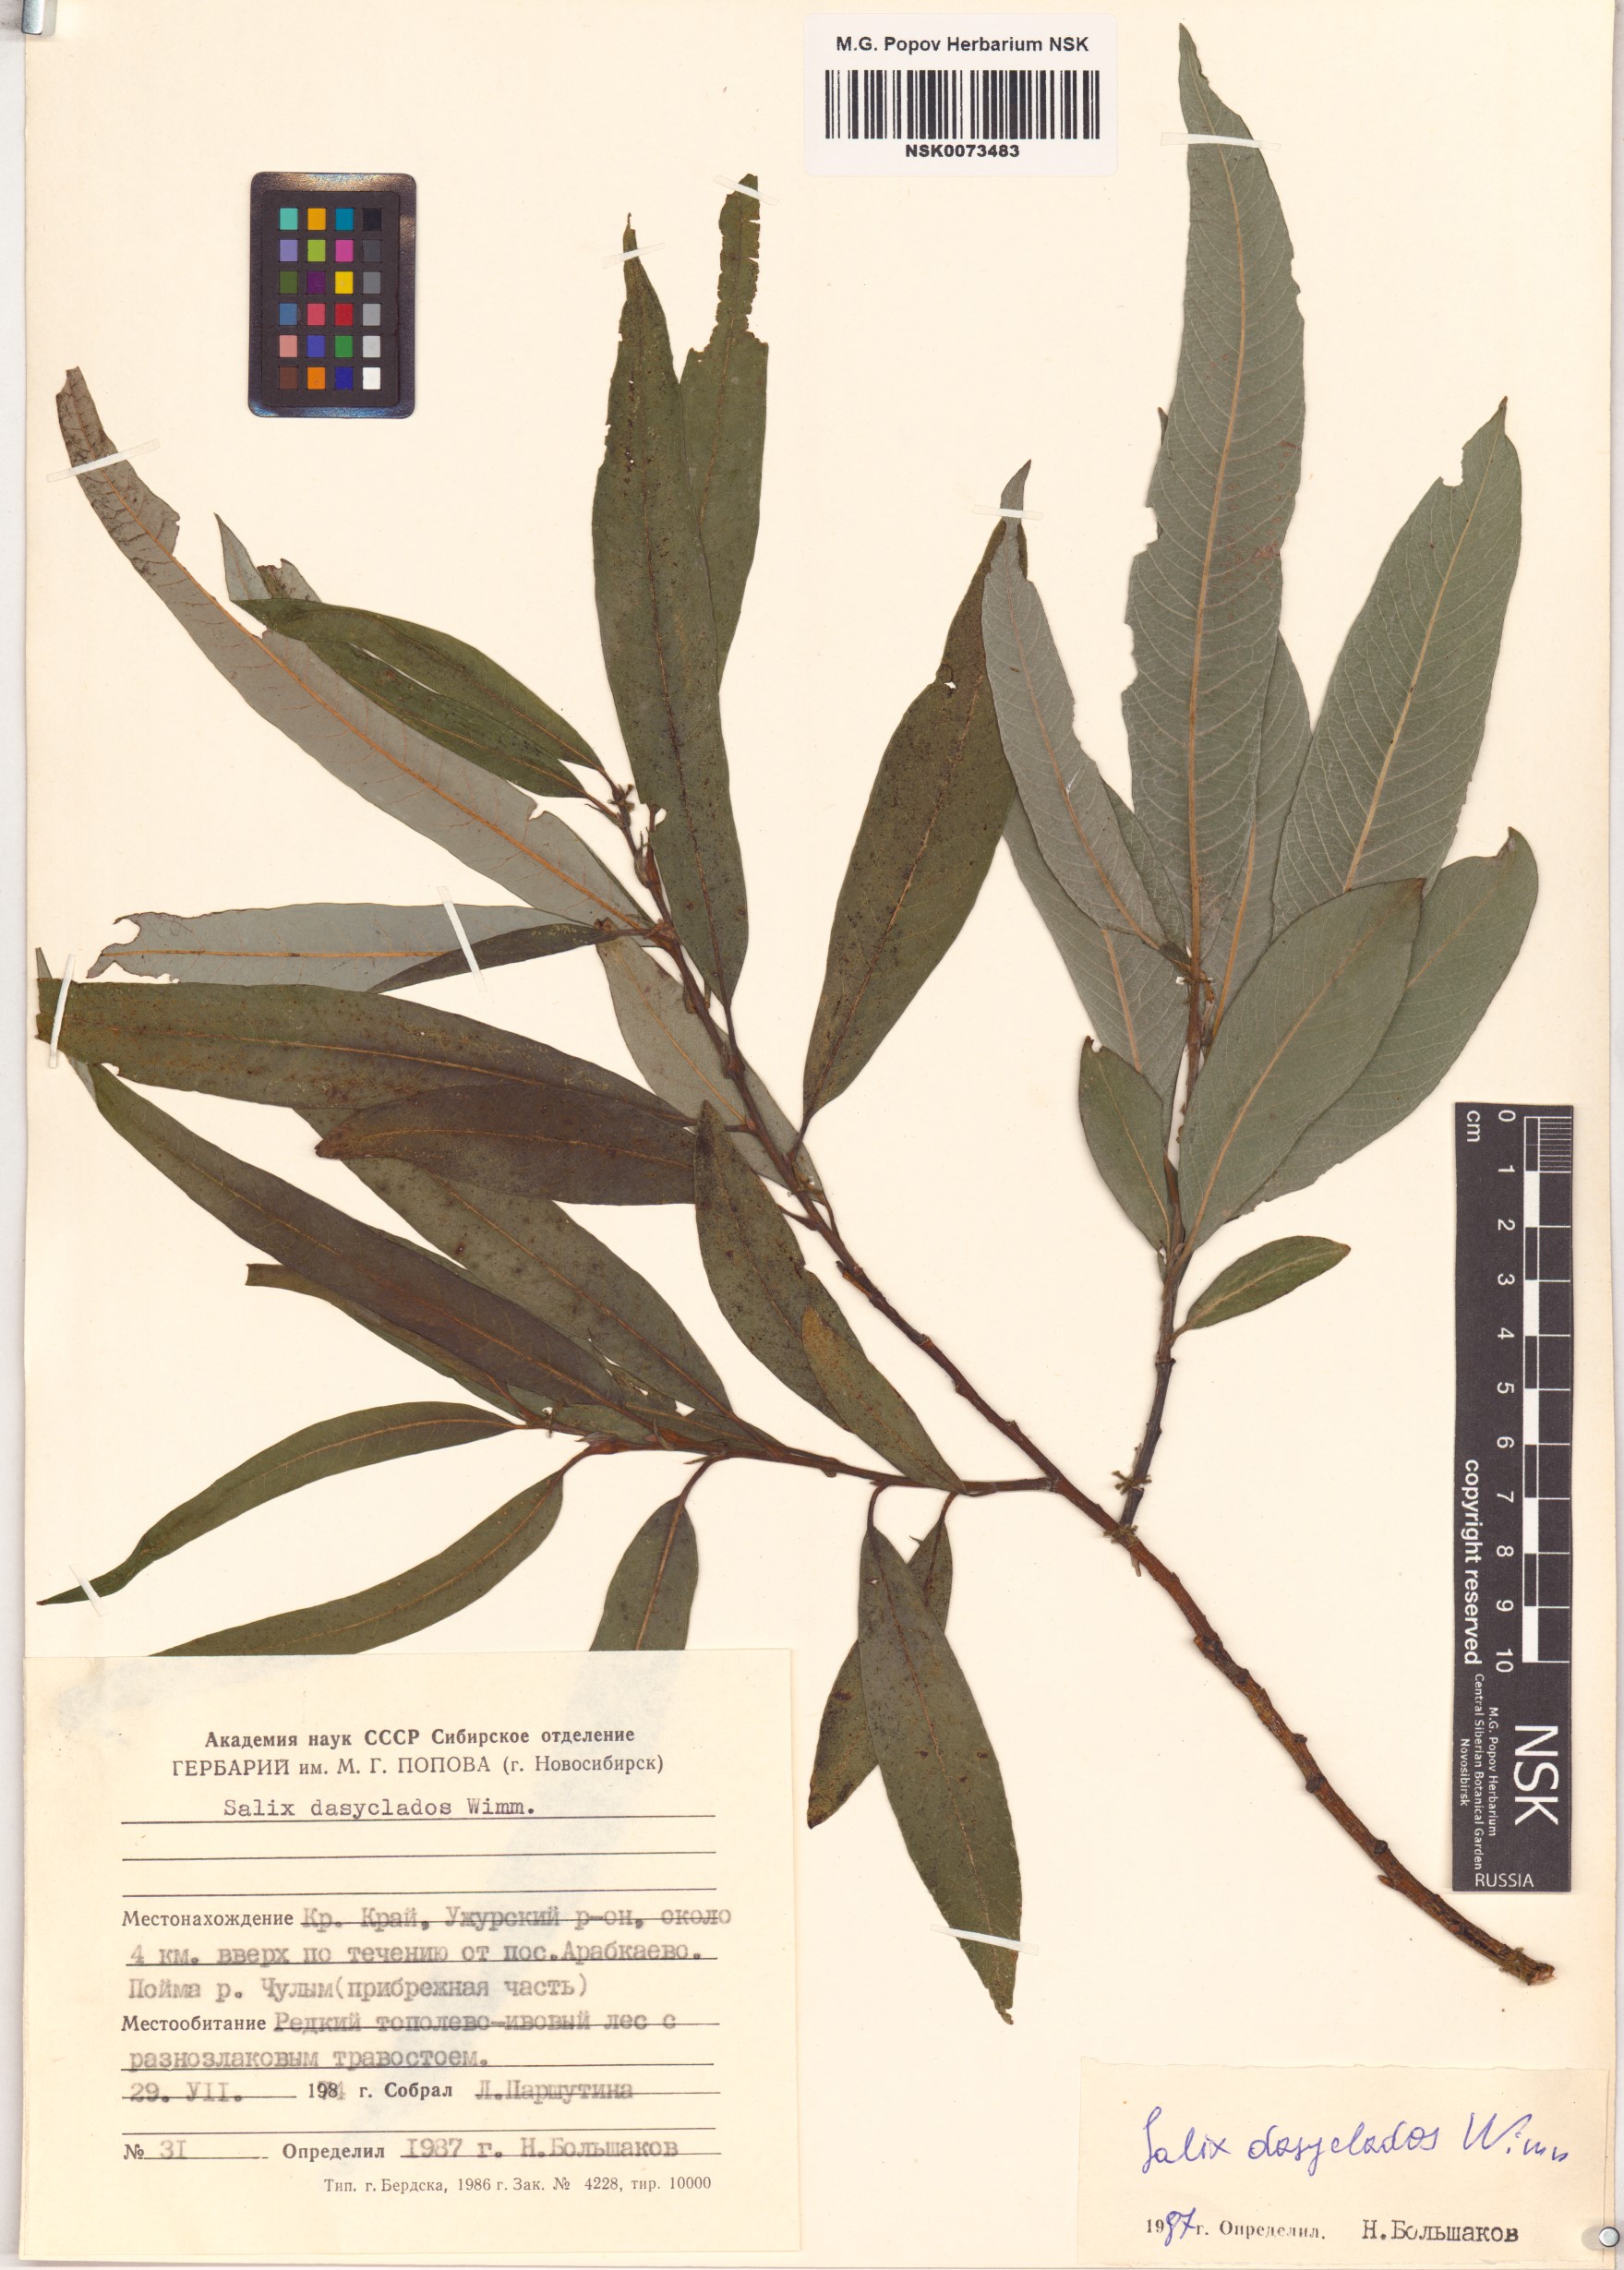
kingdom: Plantae
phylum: Tracheophyta
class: Magnoliopsida
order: Malpighiales
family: Salicaceae
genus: Salix
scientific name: Salix gmelinii
